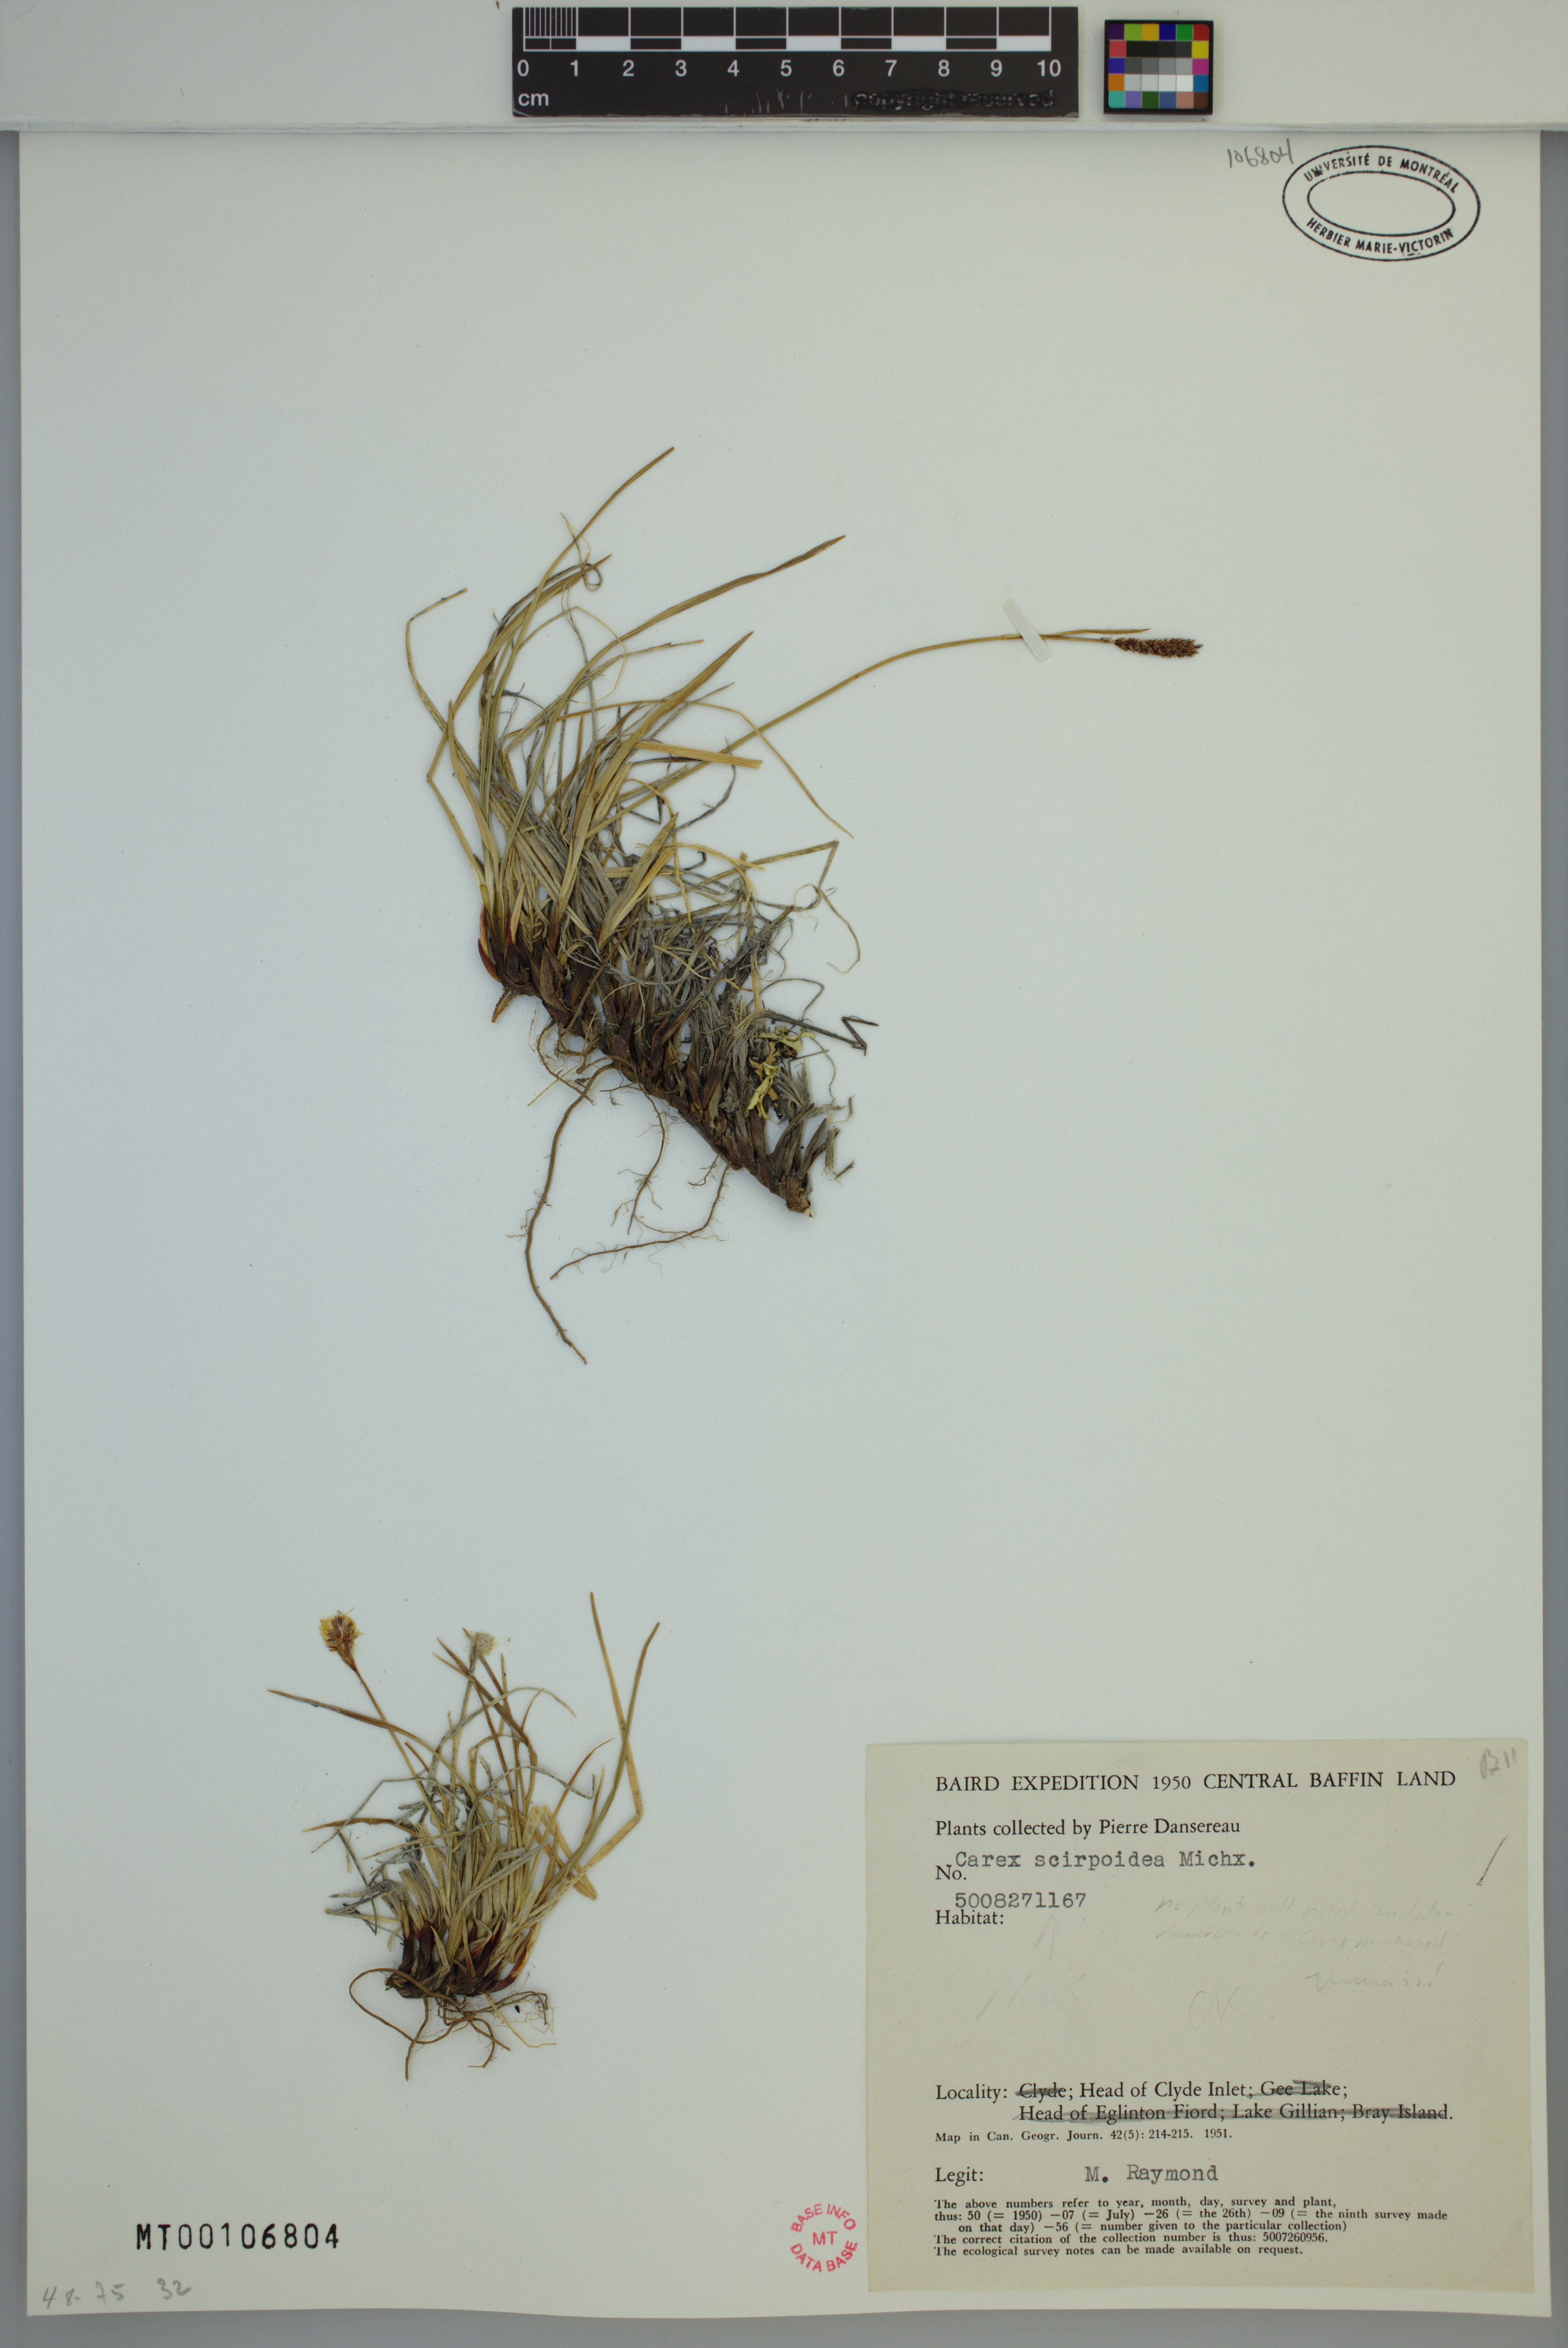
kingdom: Plantae
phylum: Tracheophyta
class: Liliopsida
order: Poales
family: Cyperaceae
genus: Carex
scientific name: Carex scirpoidea
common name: Canada single-spike sedge
